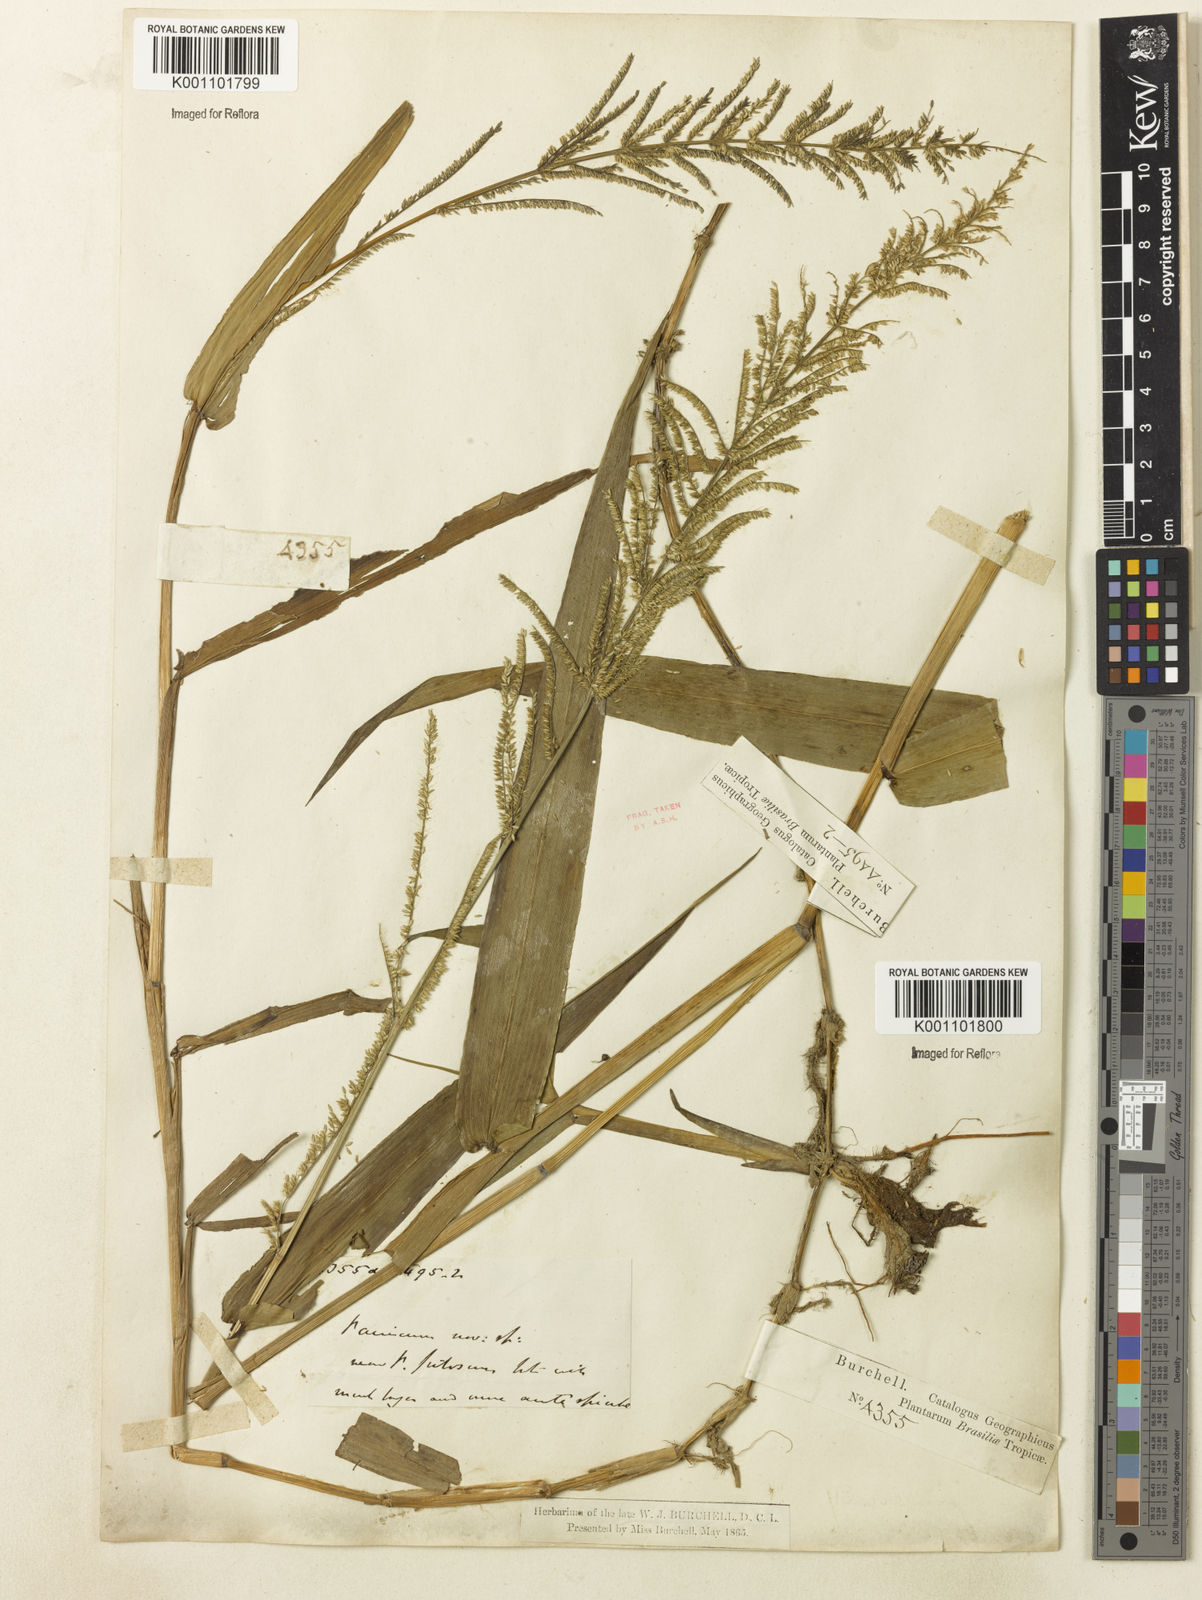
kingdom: Plantae
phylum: Tracheophyta
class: Liliopsida
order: Poales
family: Poaceae
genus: Panicum
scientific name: Panicum
